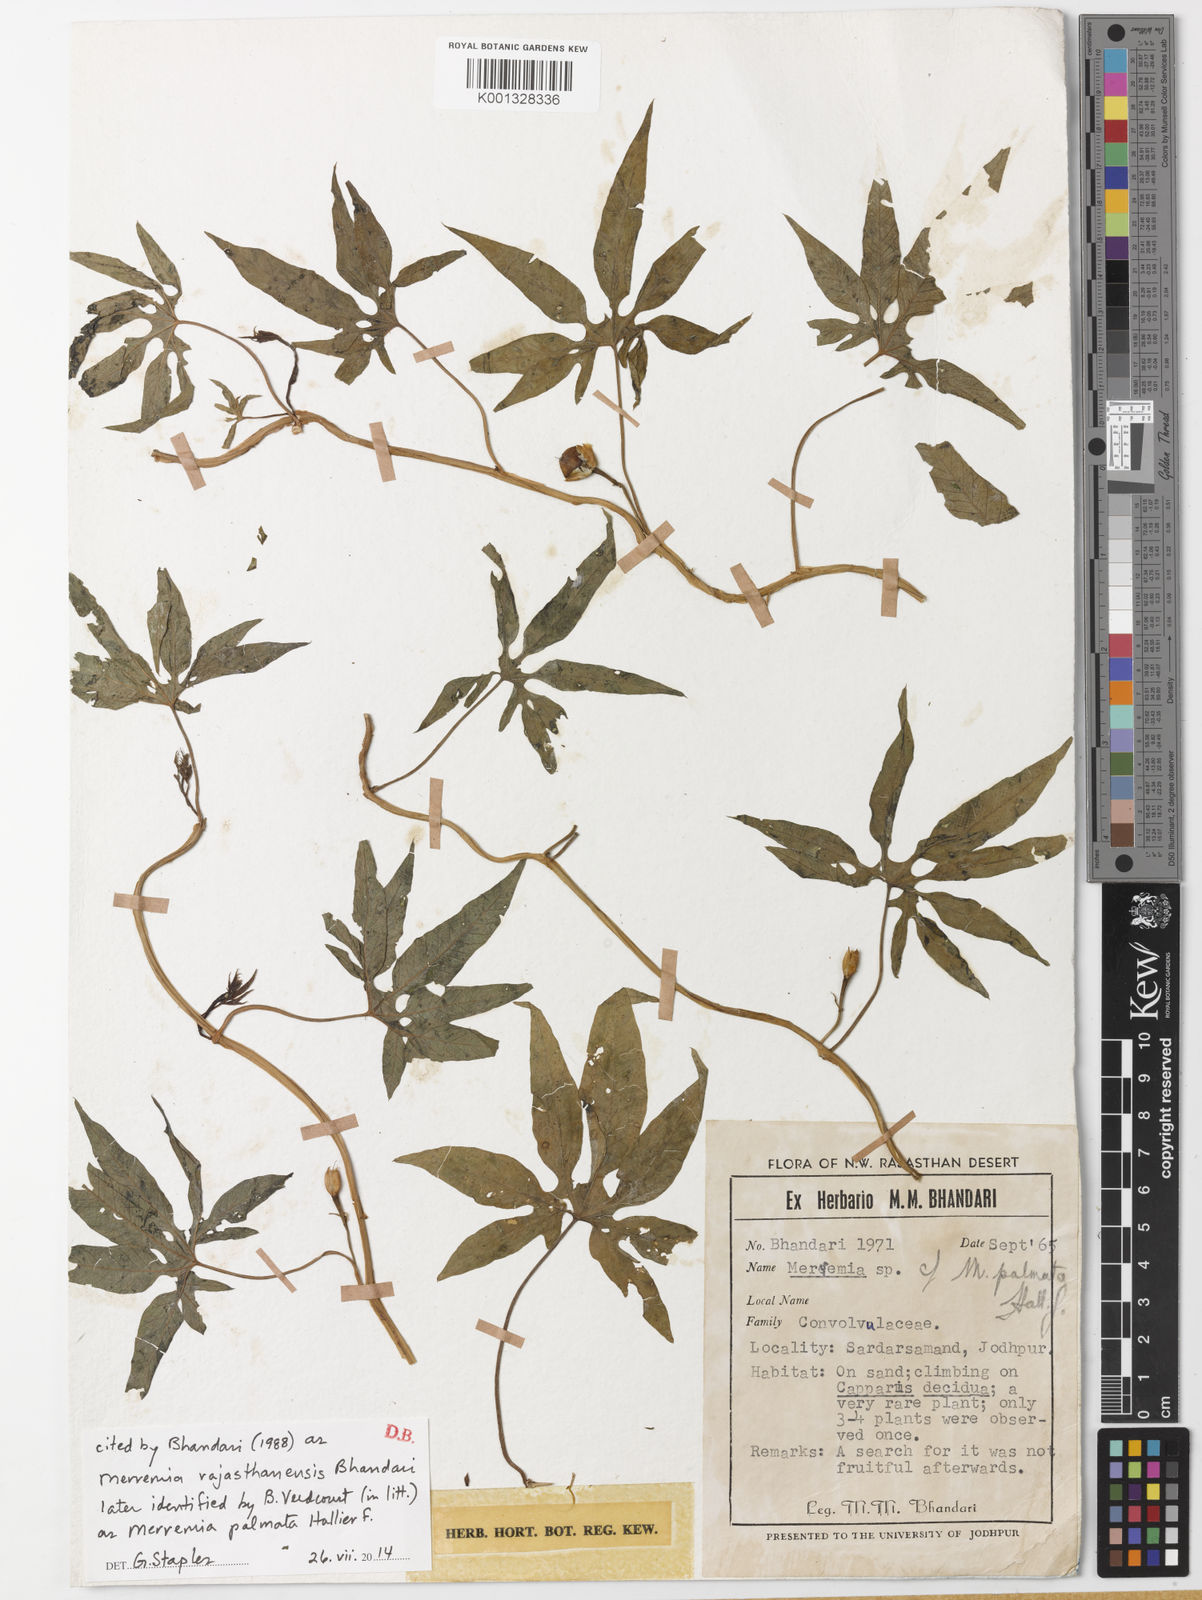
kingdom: Plantae
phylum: Tracheophyta
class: Magnoliopsida
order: Solanales
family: Convolvulaceae
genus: Distimake
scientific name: Distimake
